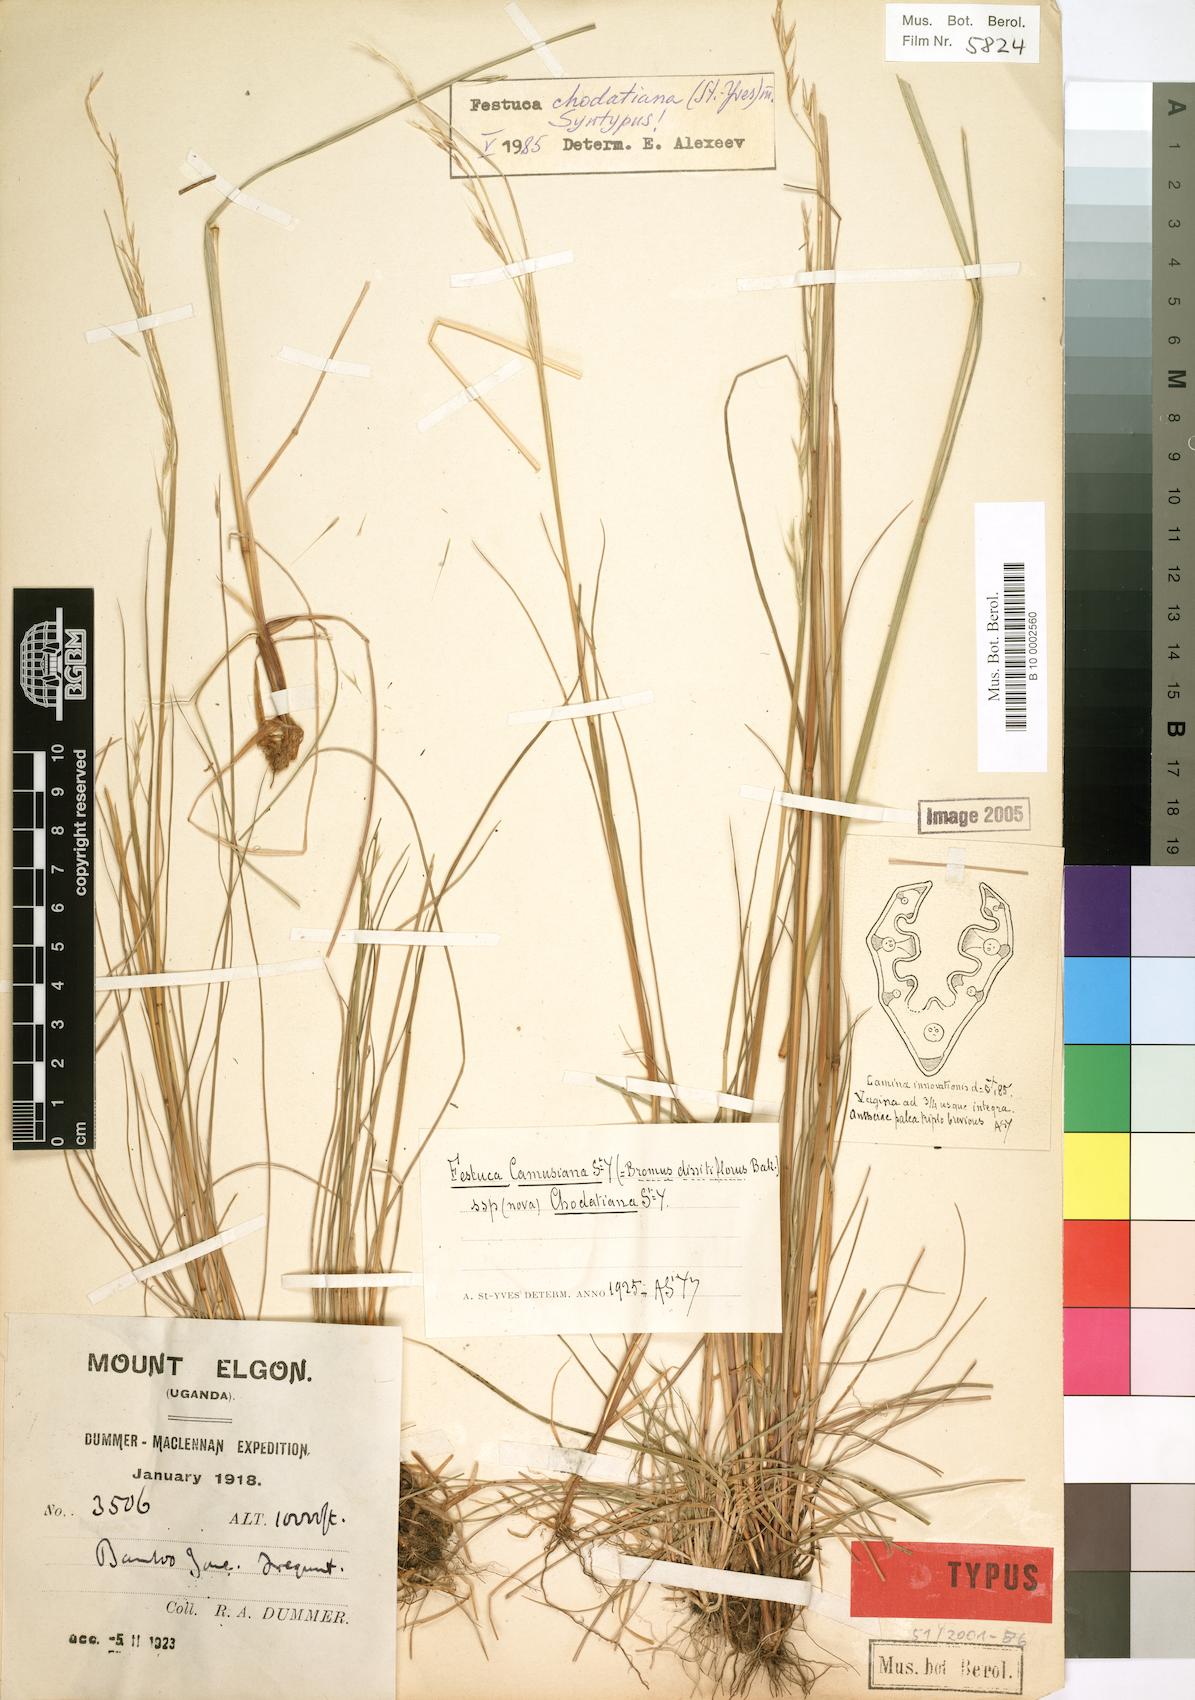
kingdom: Plantae
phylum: Tracheophyta
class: Liliopsida
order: Poales
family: Poaceae
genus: Festuca
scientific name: Festuca chodatiana
